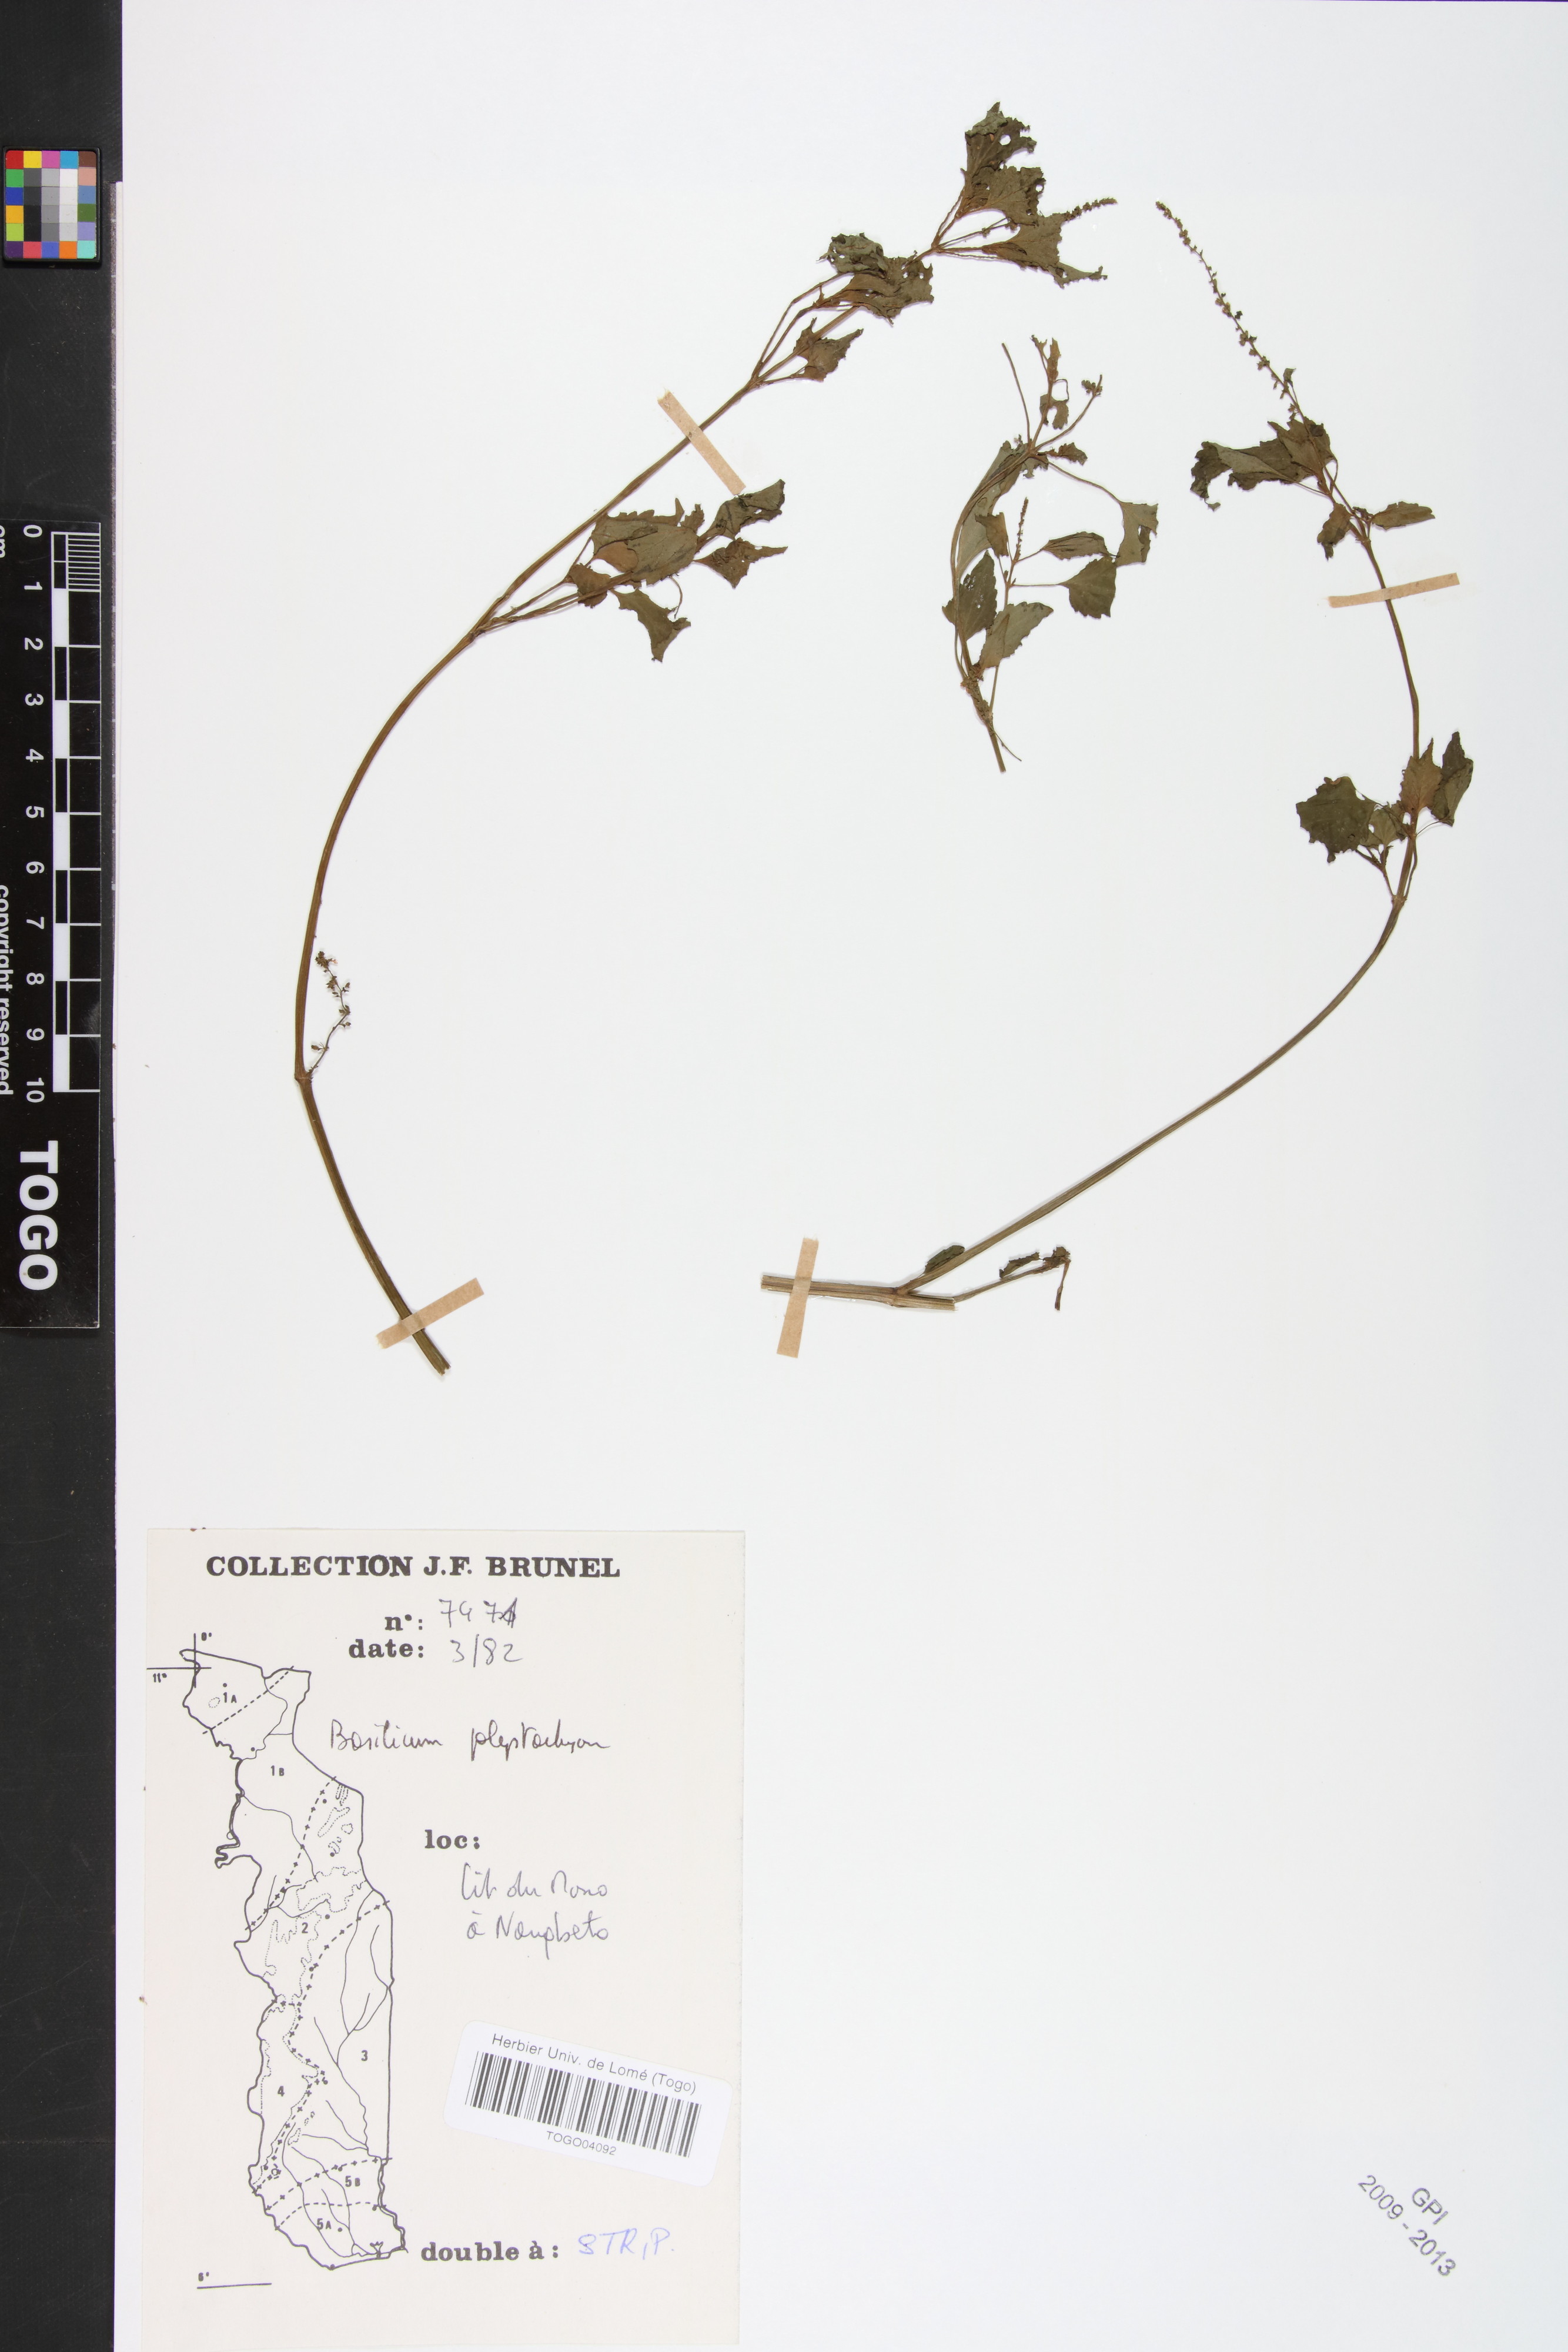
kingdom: Plantae
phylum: Tracheophyta
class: Magnoliopsida
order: Lamiales
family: Lamiaceae
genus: Basilicum
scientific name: Basilicum polystachyon
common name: Musk-basil
